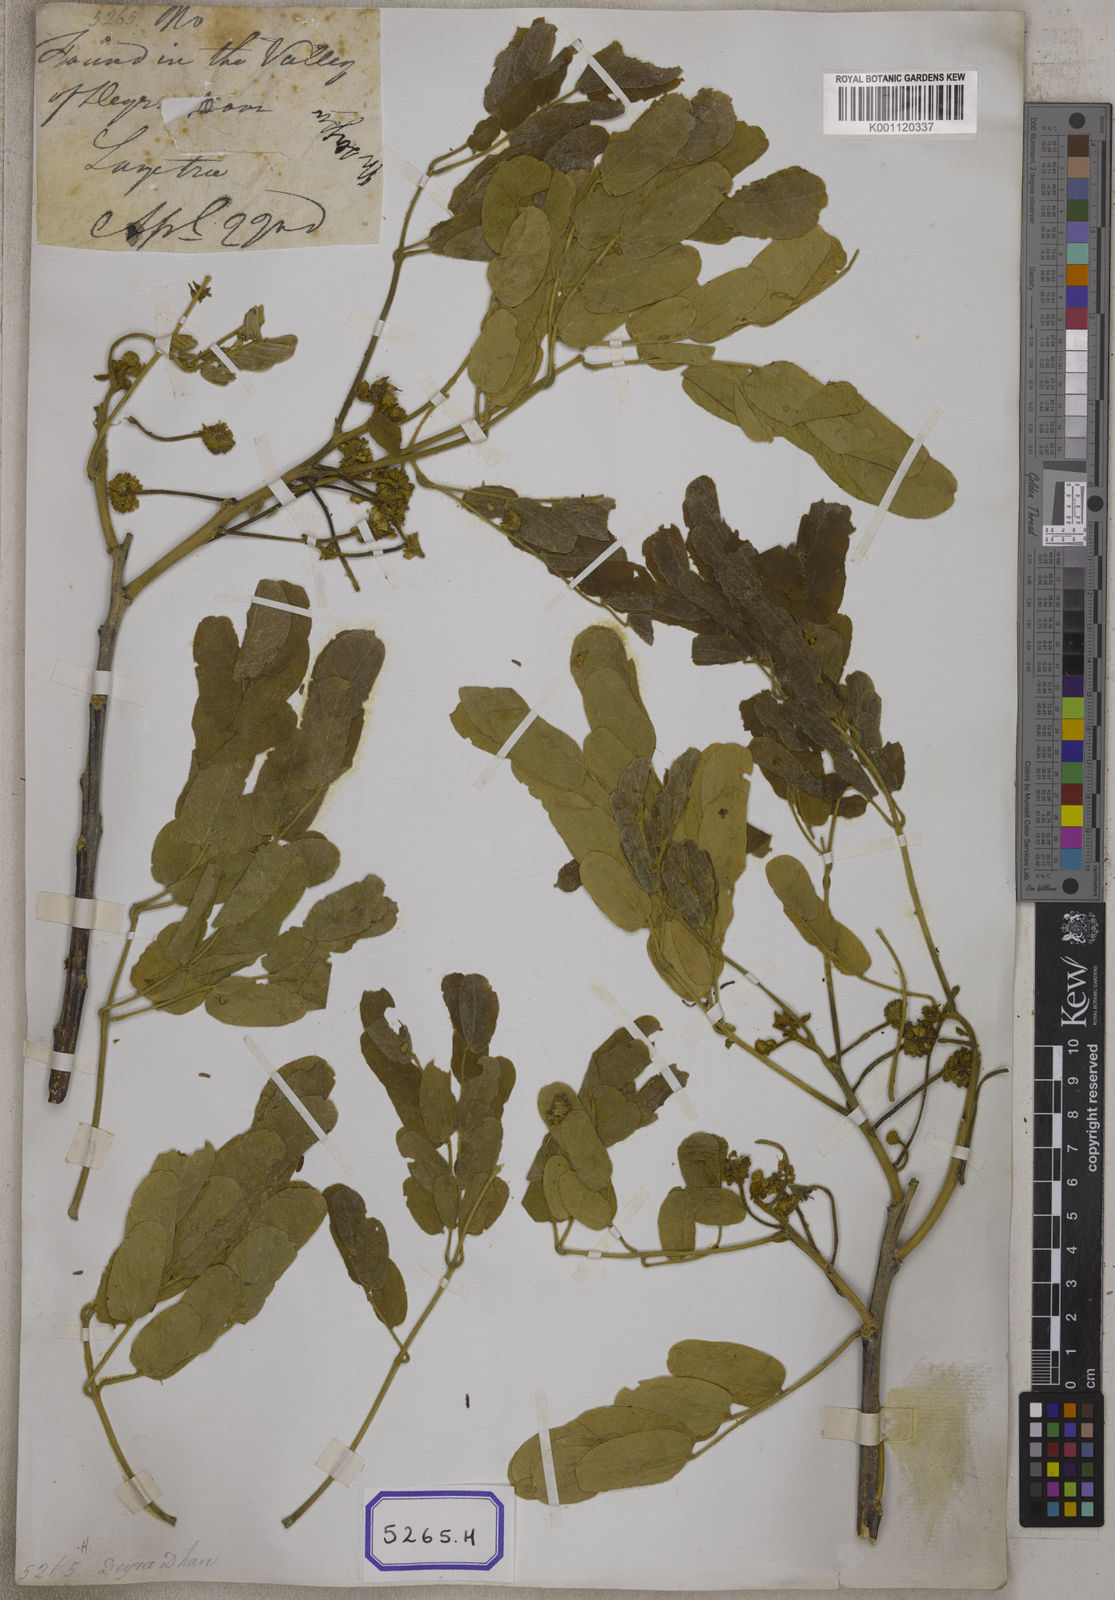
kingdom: Plantae
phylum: Tracheophyta
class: Magnoliopsida
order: Fabales
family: Fabaceae
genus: Acacia
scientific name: Acacia
